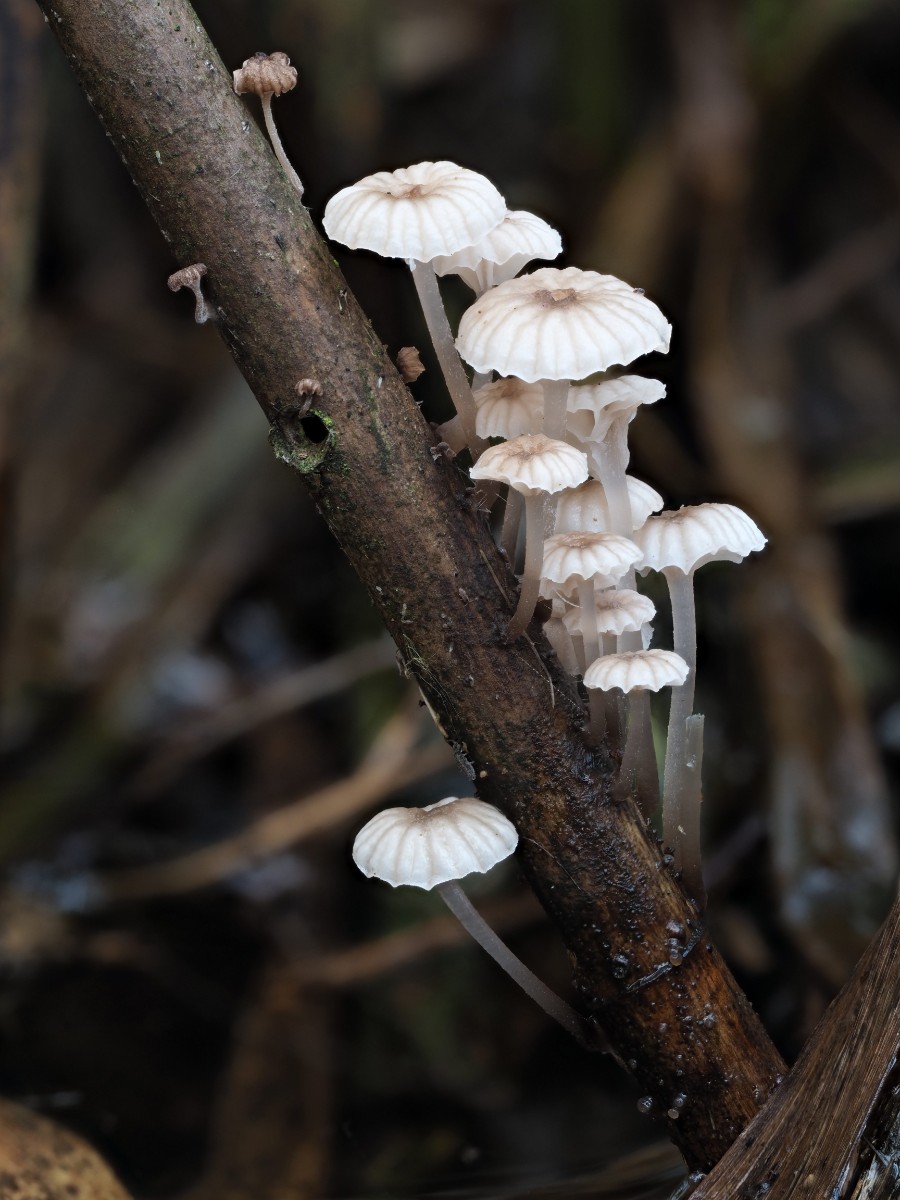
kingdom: Fungi
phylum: Basidiomycota
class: Agaricomycetes
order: Agaricales
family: Mycenaceae
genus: Mycena
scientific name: Mycena belliae
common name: tagrørs-huesvamp
